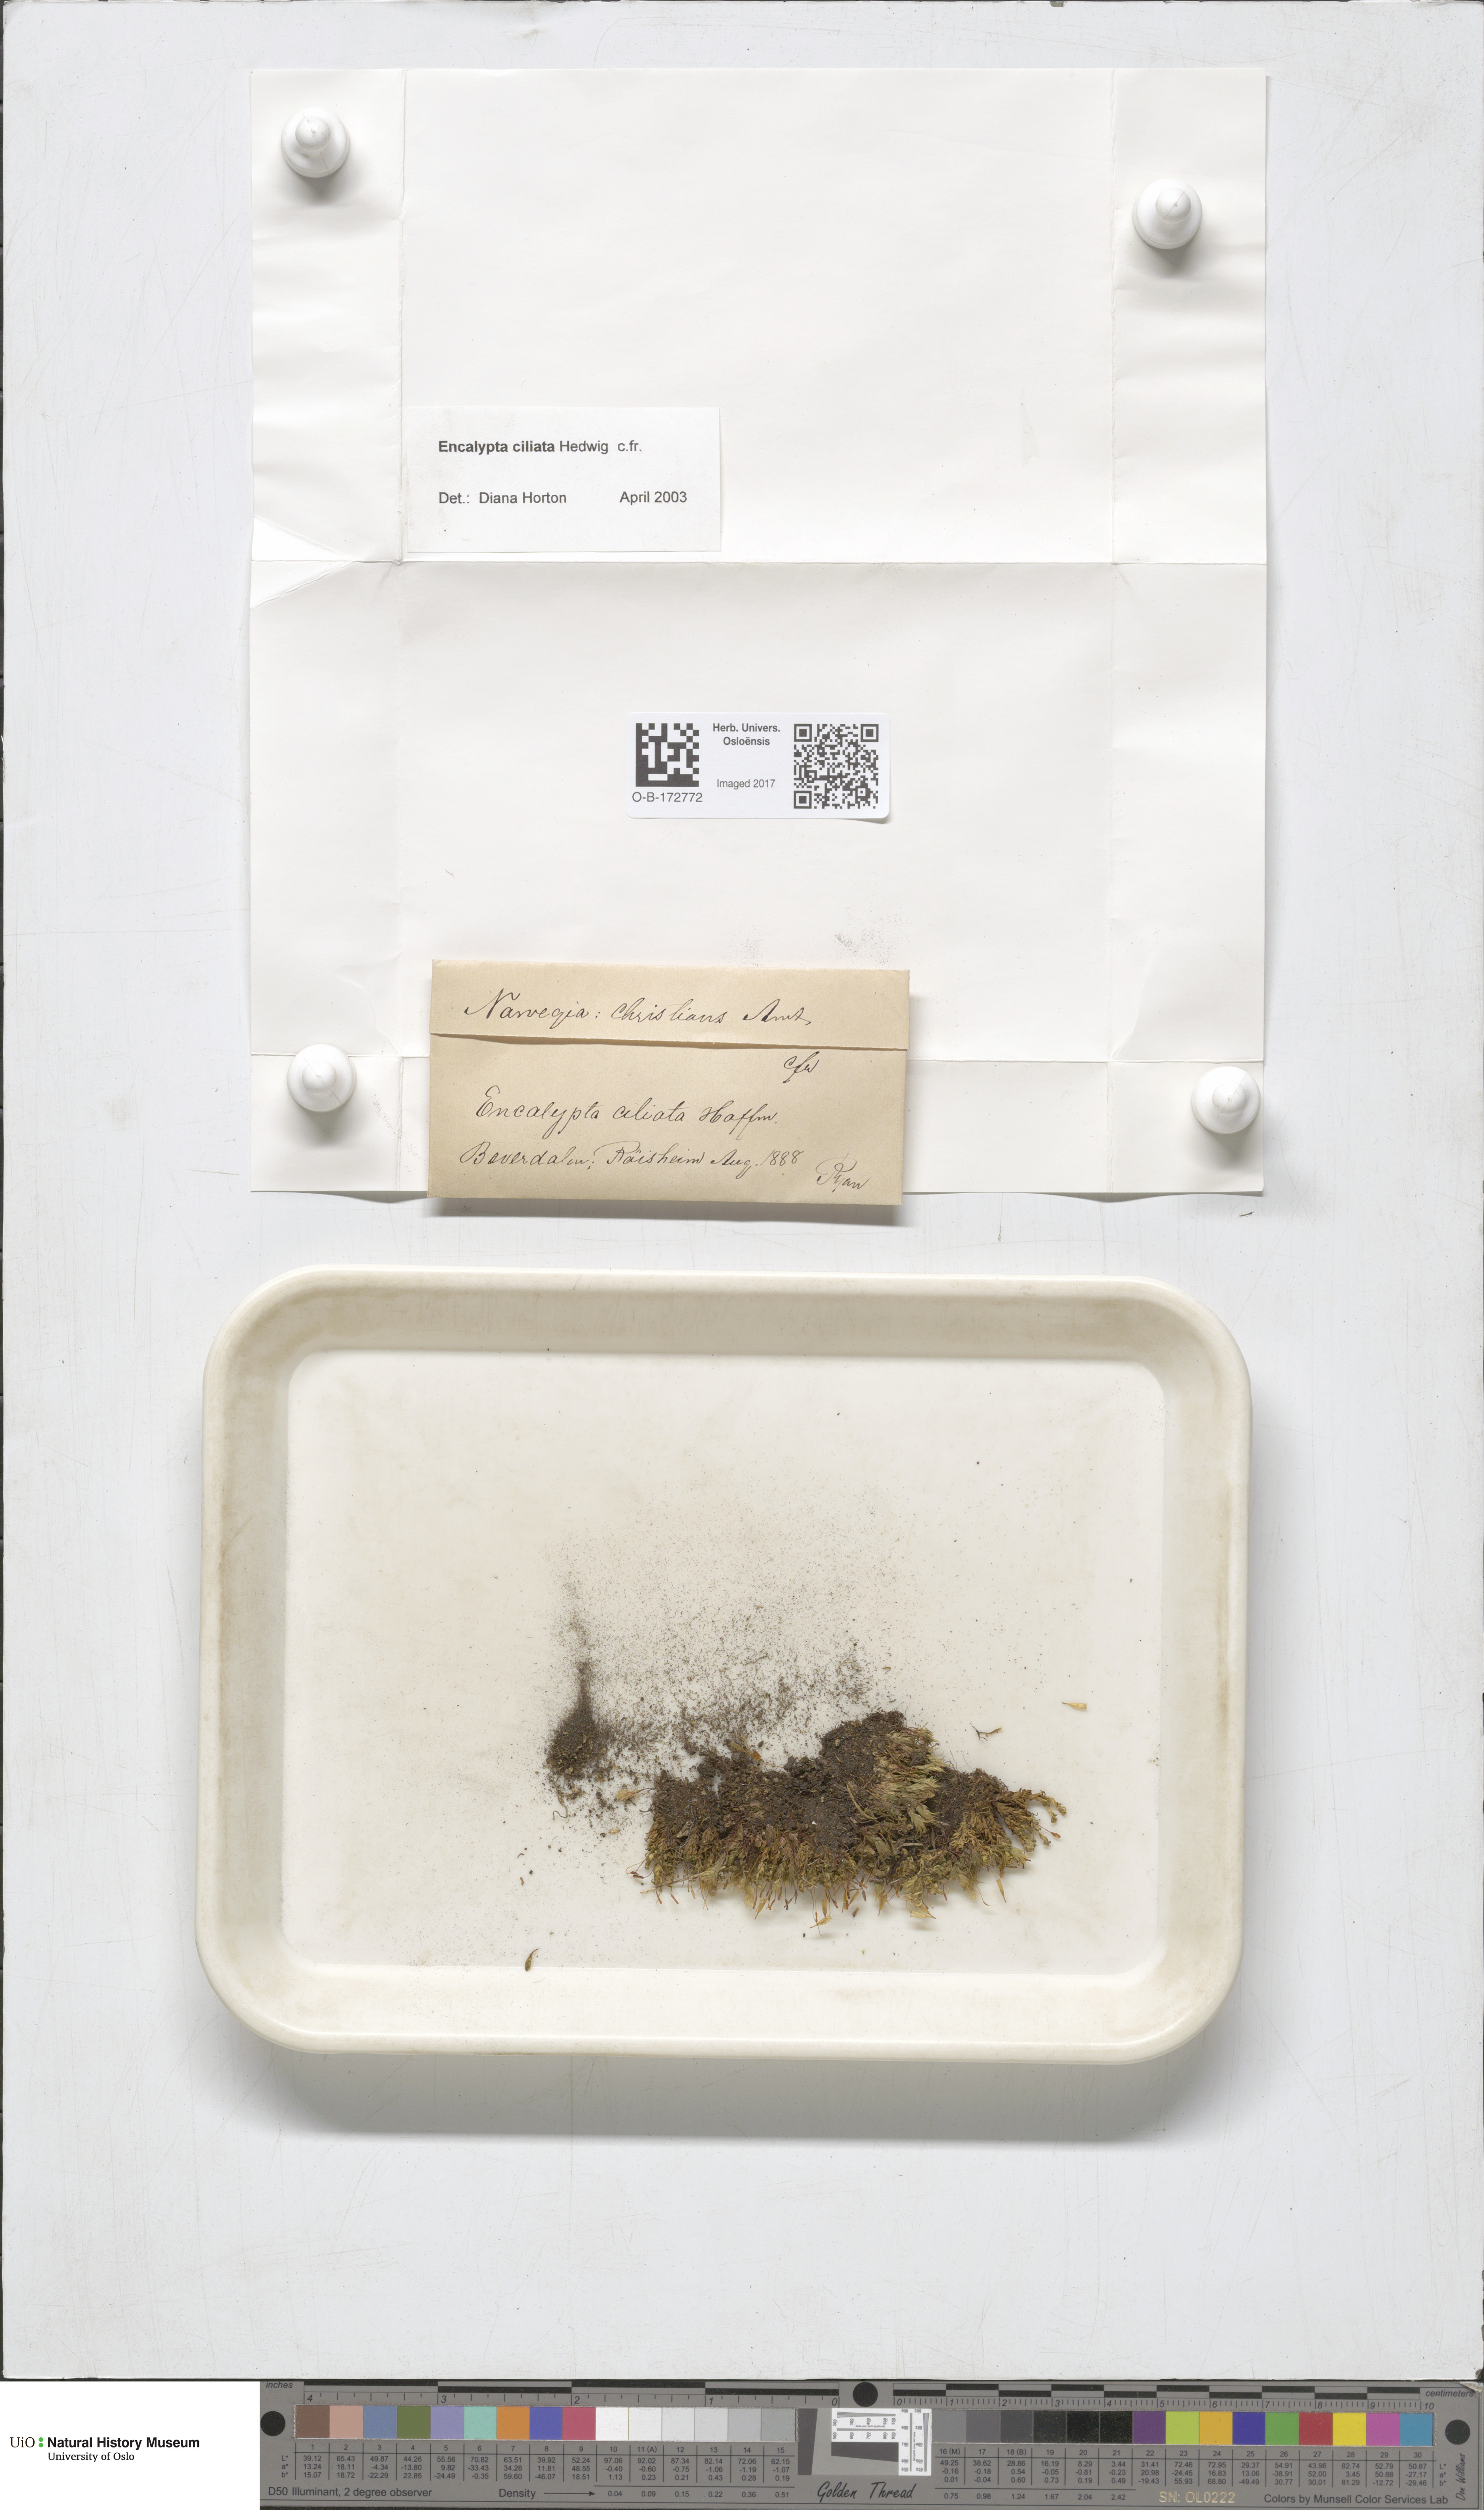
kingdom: Plantae
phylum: Bryophyta
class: Bryopsida
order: Encalyptales
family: Encalyptaceae
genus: Encalypta
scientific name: Encalypta ciliata
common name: Fringed extinguisher-moss
